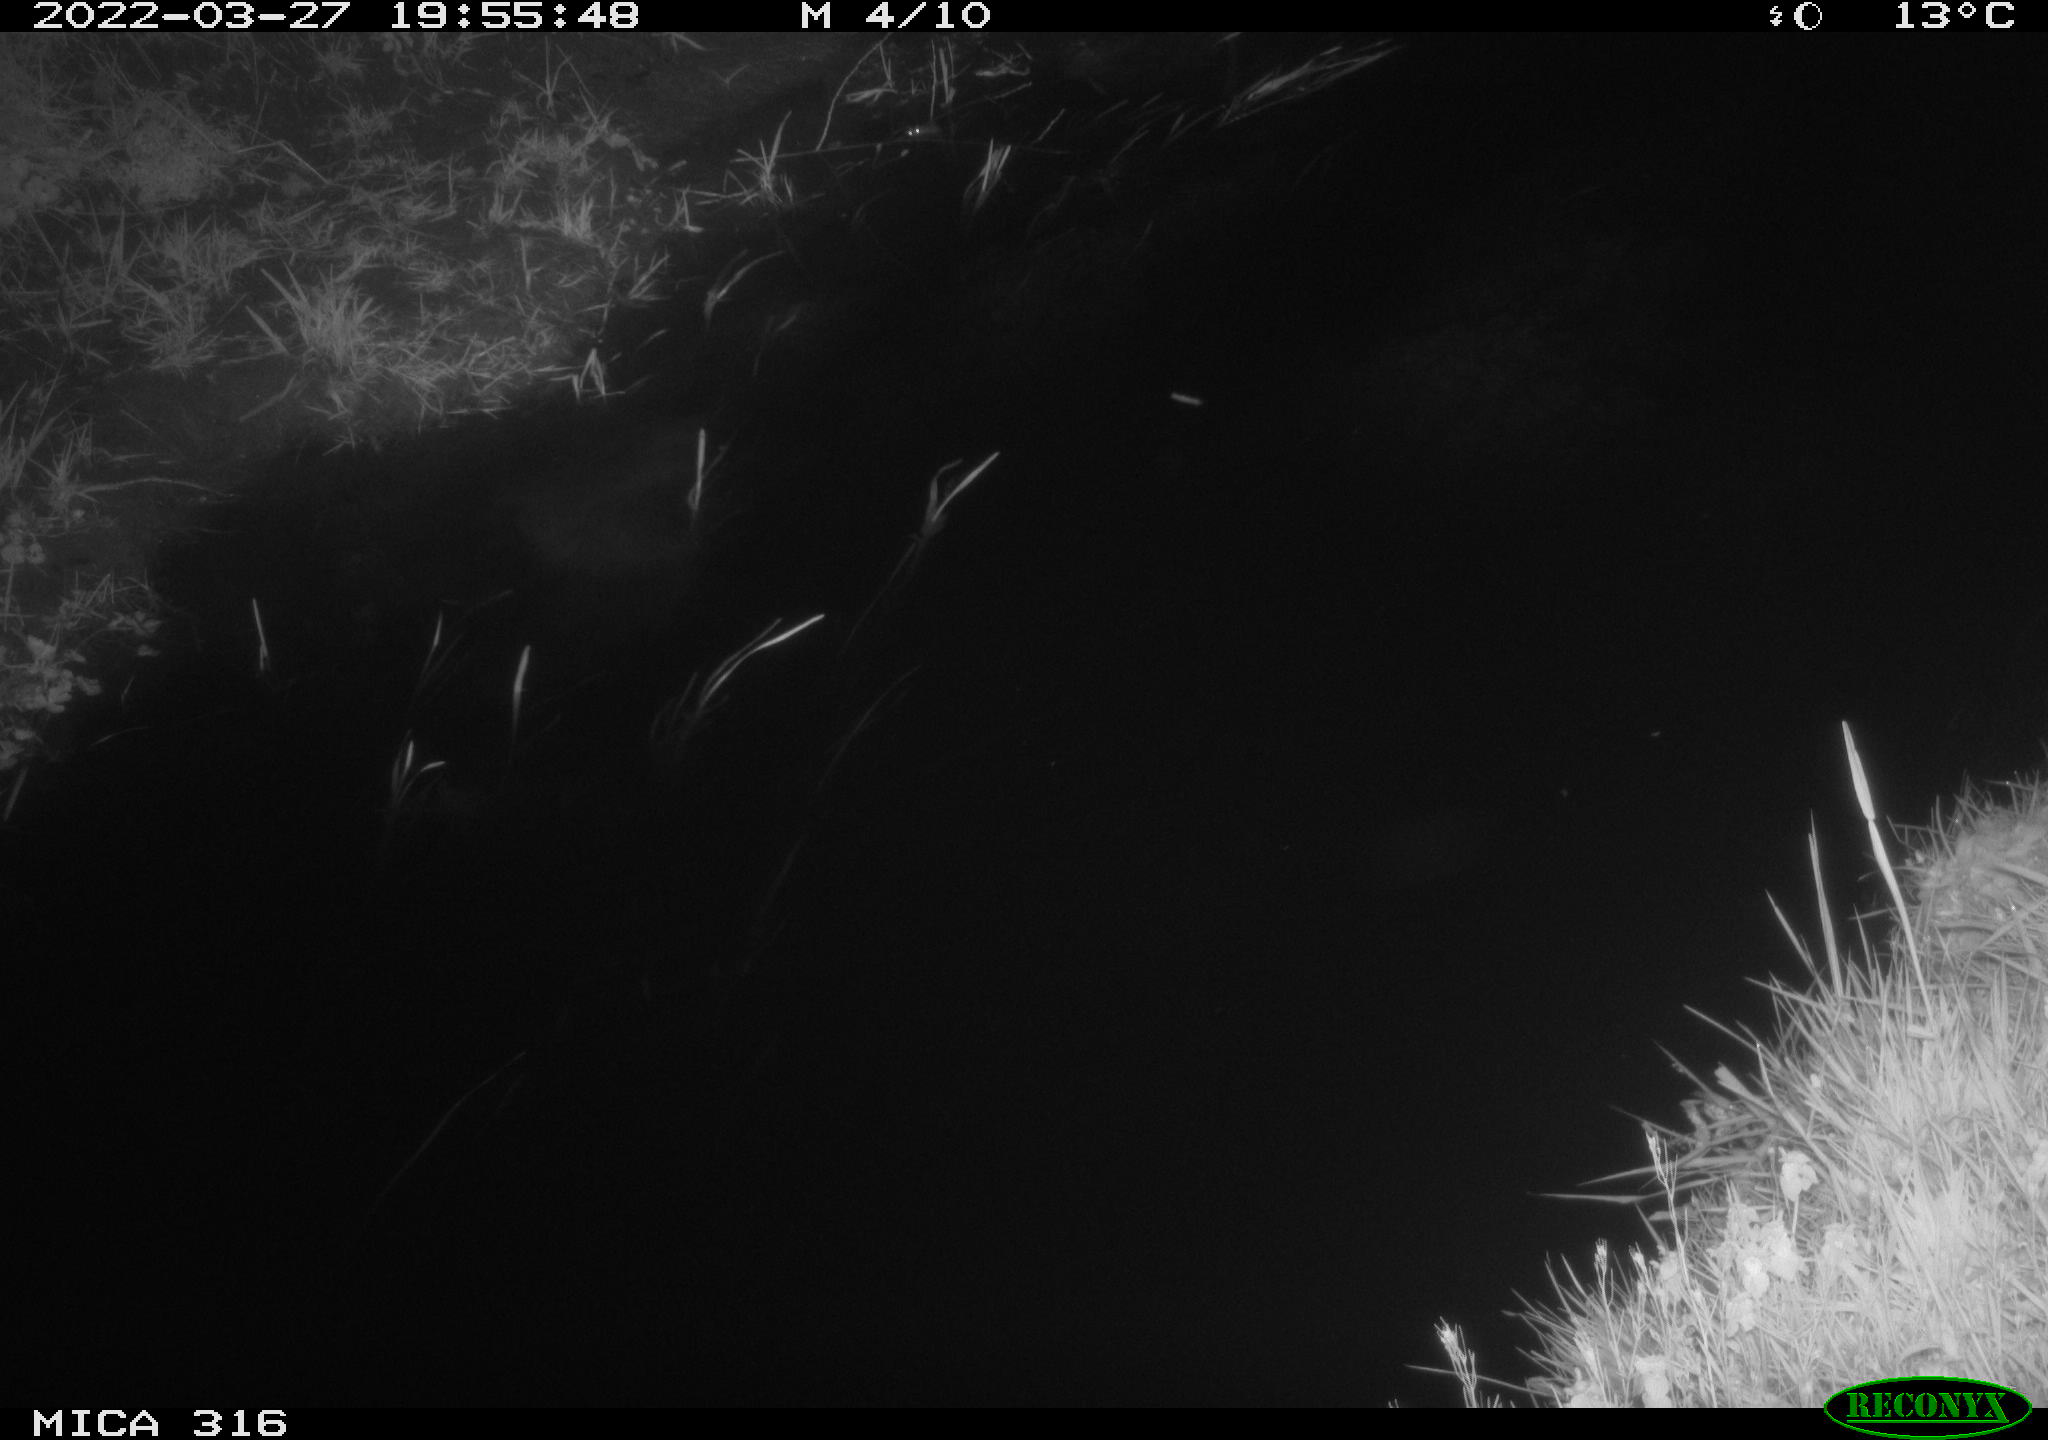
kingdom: Animalia
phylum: Chordata
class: Aves
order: Anseriformes
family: Anatidae
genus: Anas
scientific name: Anas platyrhynchos
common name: Mallard
